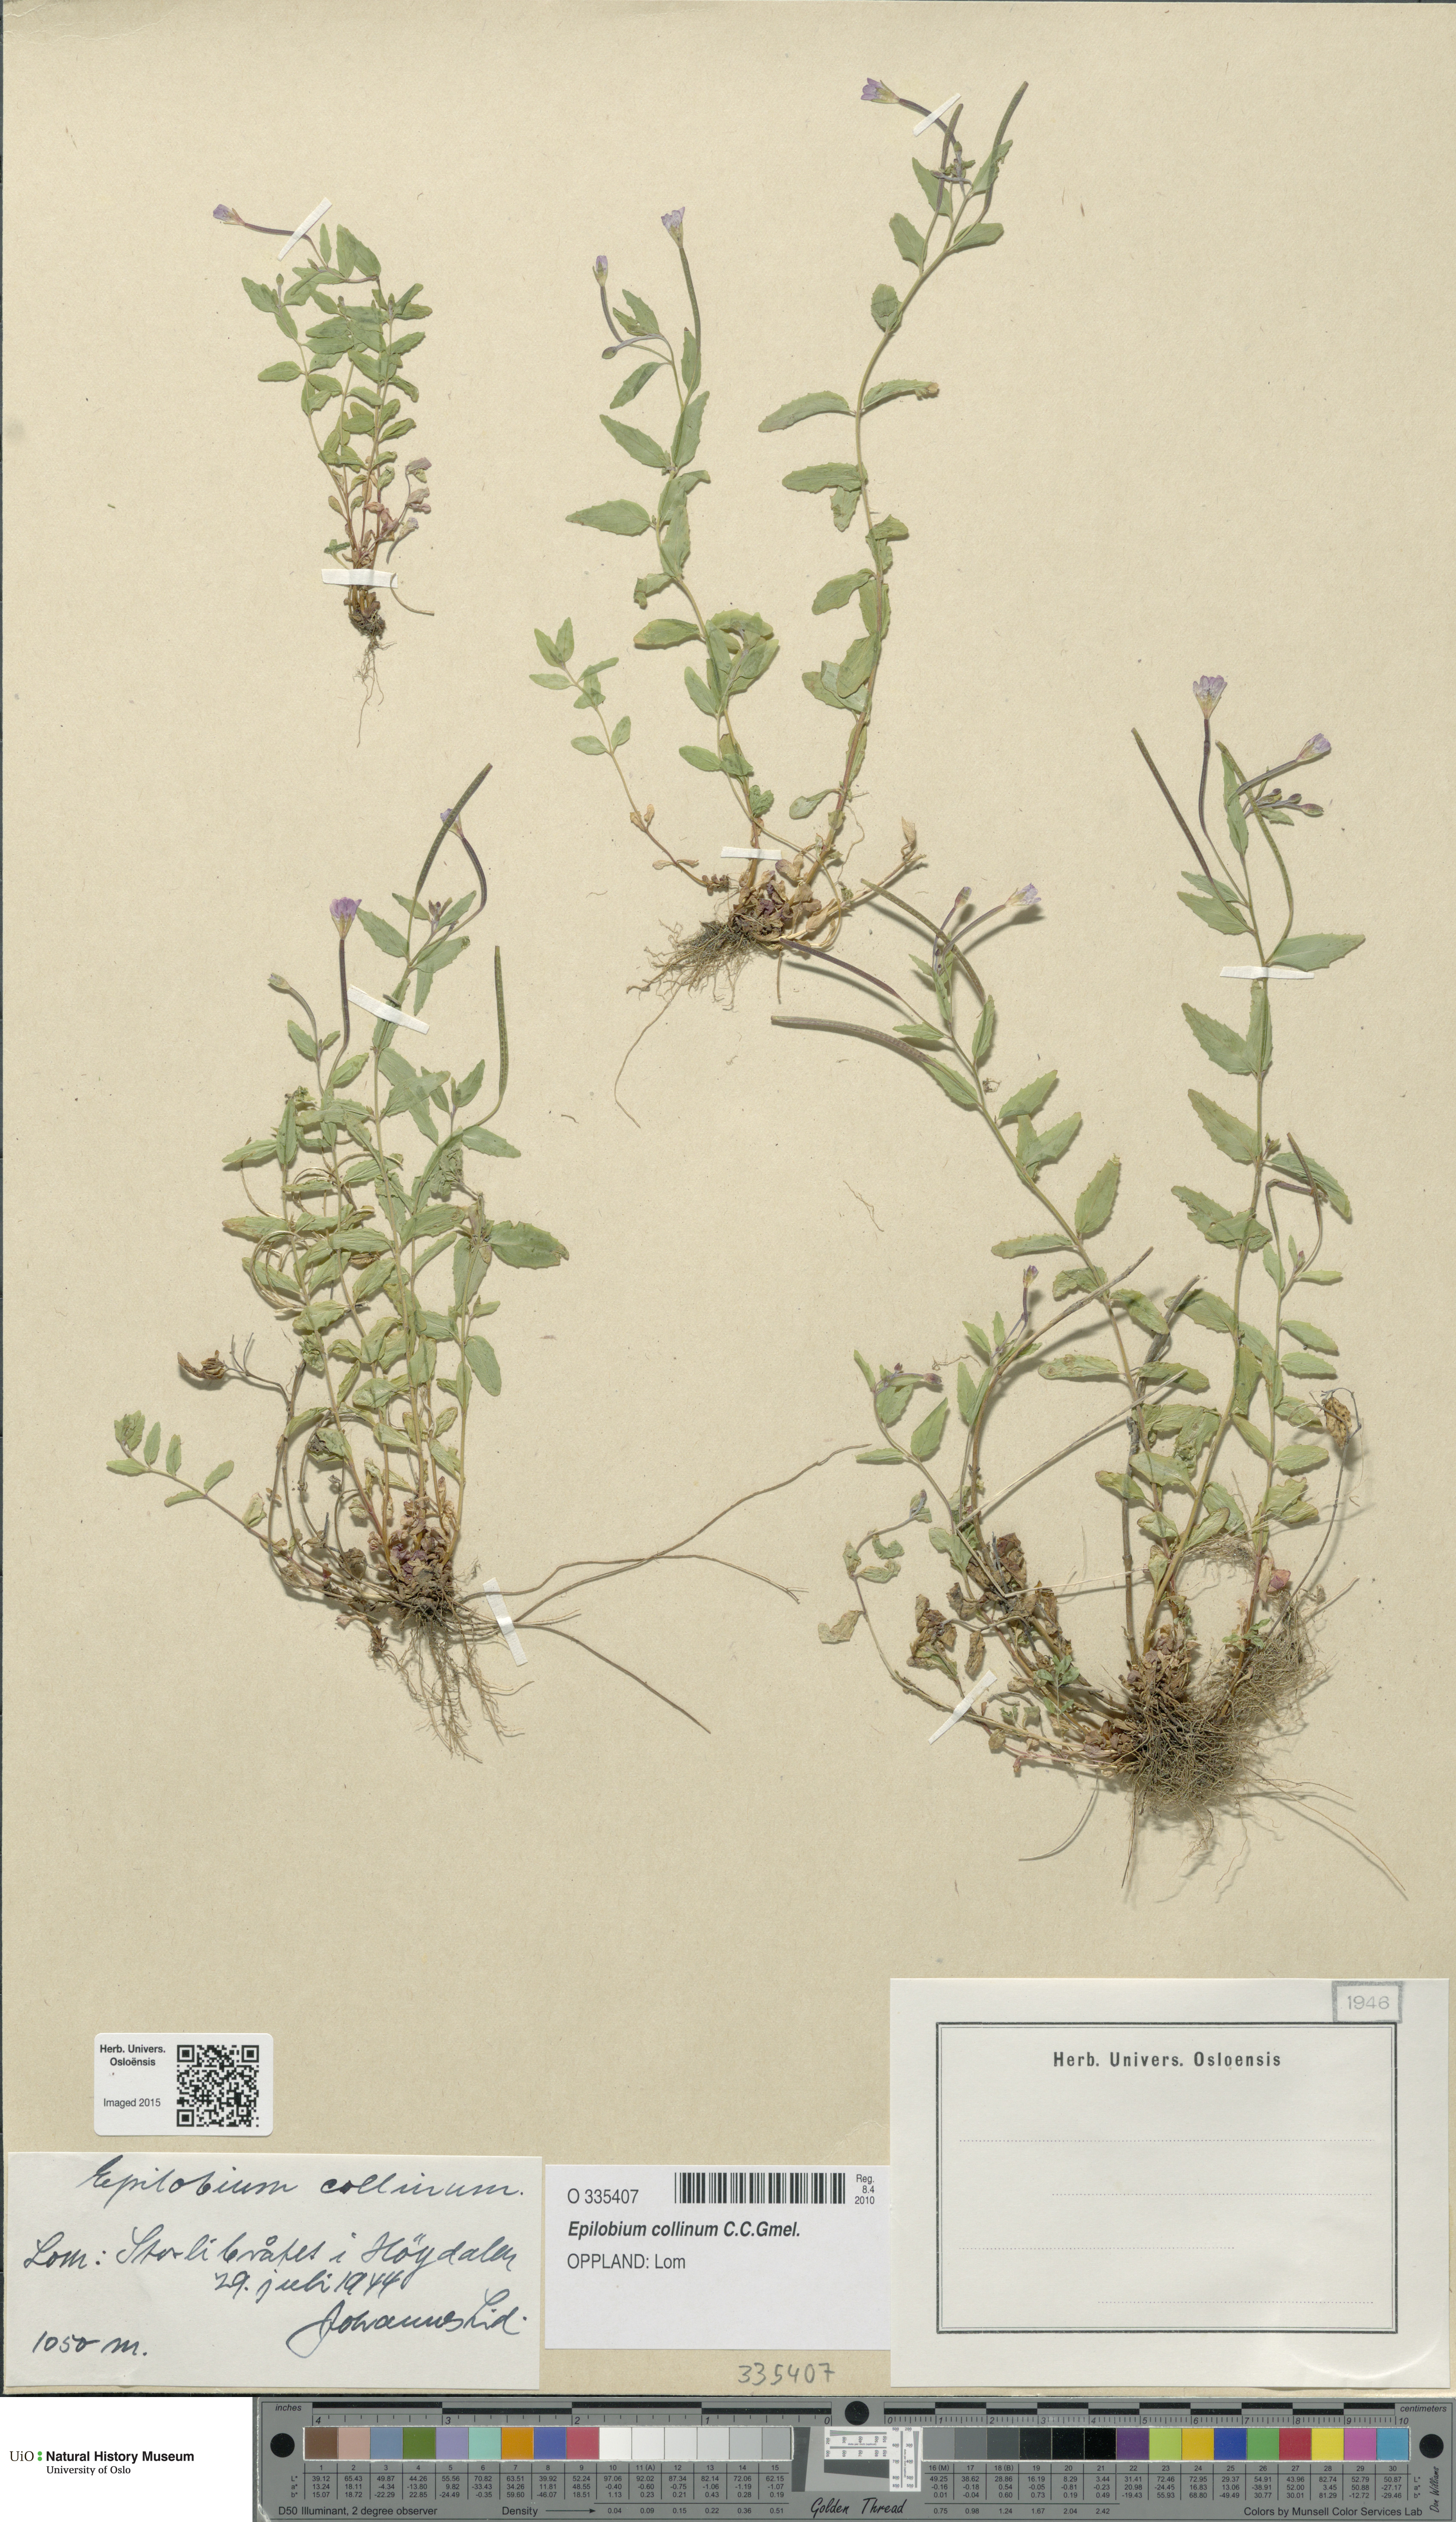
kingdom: Plantae
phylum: Tracheophyta
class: Magnoliopsida
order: Myrtales
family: Onagraceae
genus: Epilobium
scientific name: Epilobium collinum
